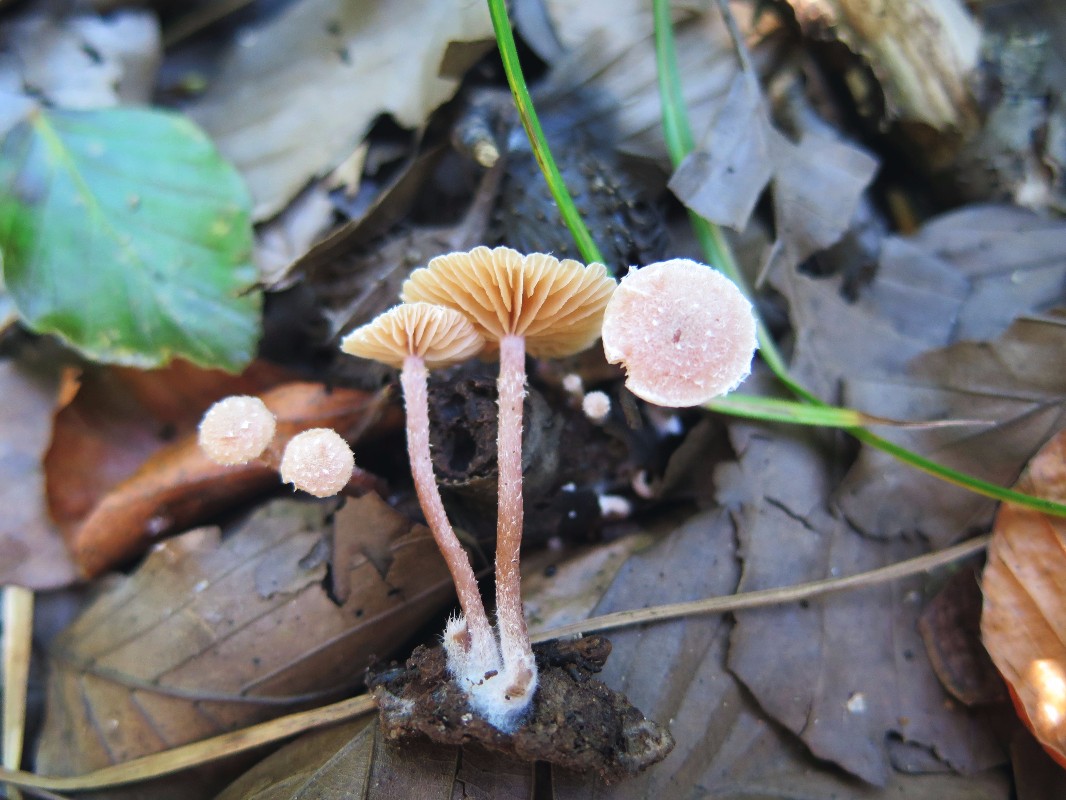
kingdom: Fungi
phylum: Basidiomycota
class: Agaricomycetes
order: Agaricales
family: Tubariaceae
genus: Tubaria
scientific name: Tubaria conspersa
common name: bleg fnughat
